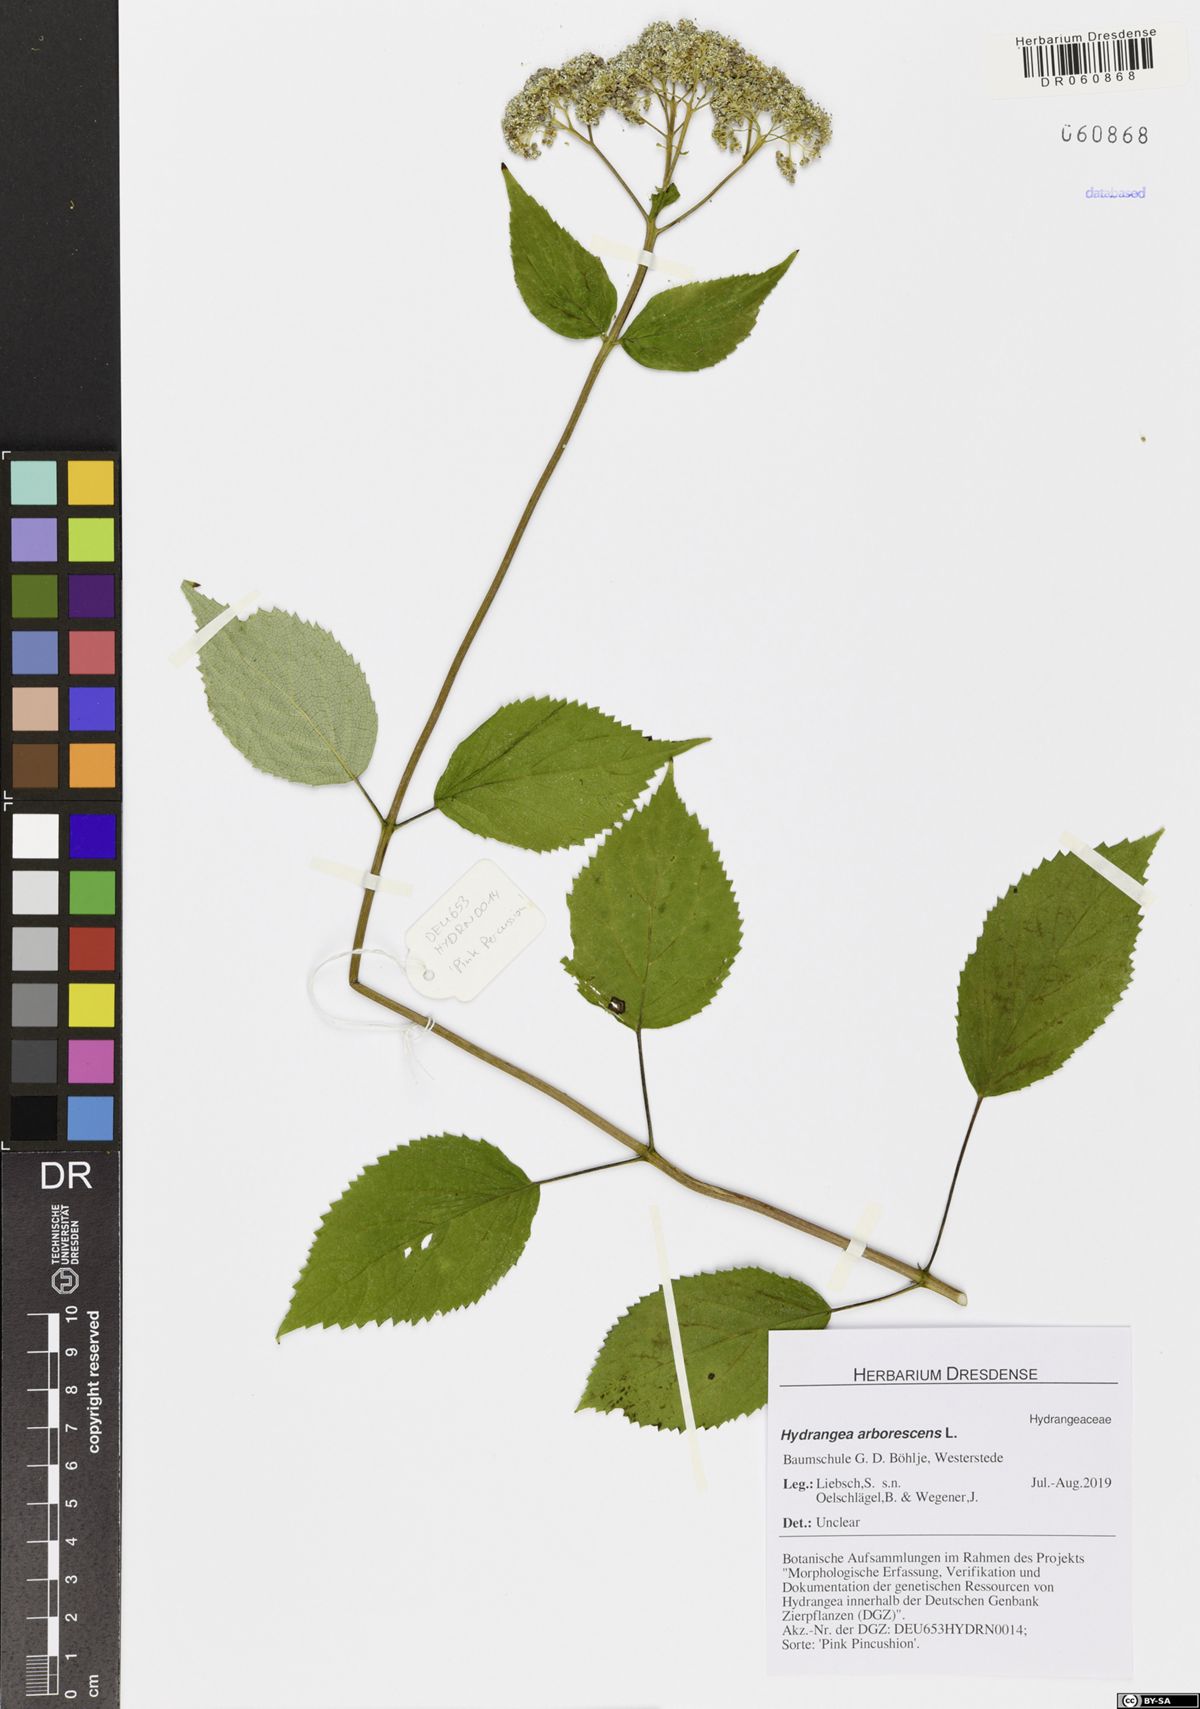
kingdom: Plantae
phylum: Tracheophyta
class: Magnoliopsida
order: Cornales
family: Hydrangeaceae
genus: Hydrangea
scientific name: Hydrangea arborescens
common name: Sevenbark
